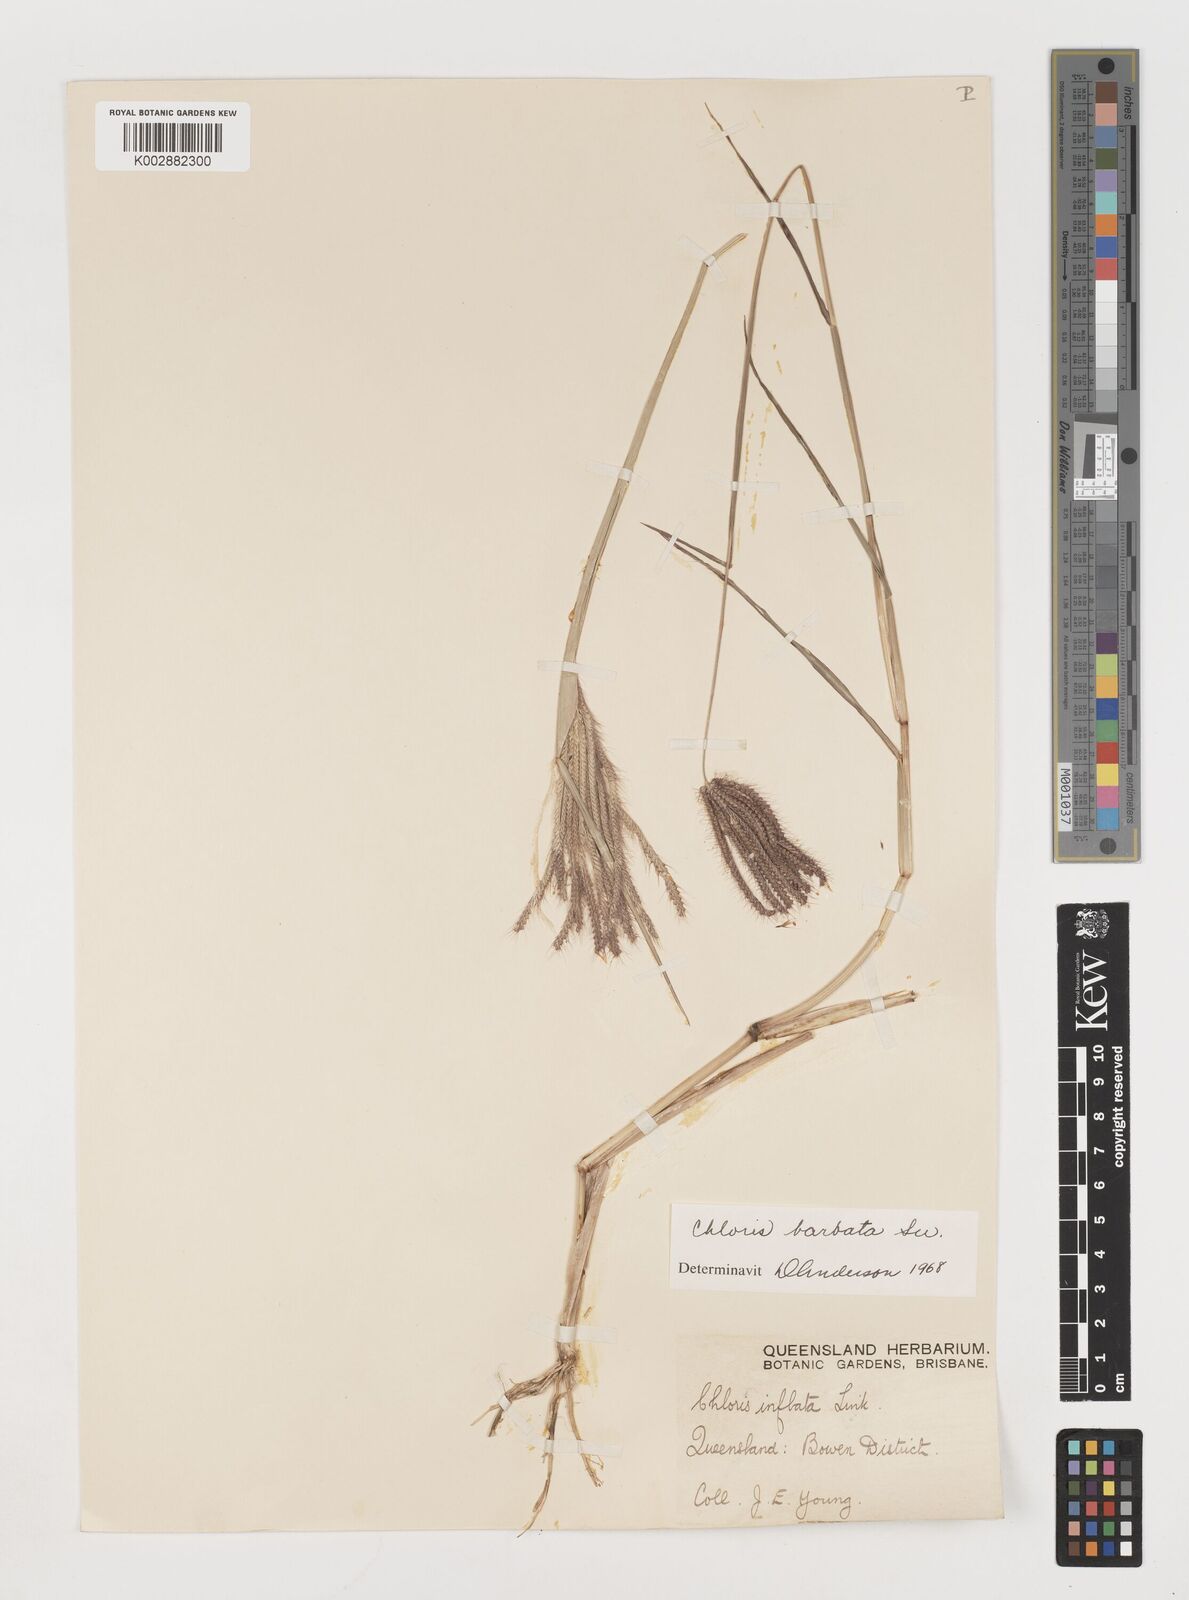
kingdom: Plantae
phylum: Tracheophyta
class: Liliopsida
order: Poales
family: Poaceae
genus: Chloris
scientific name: Chloris barbata
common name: Swollen fingergrass
